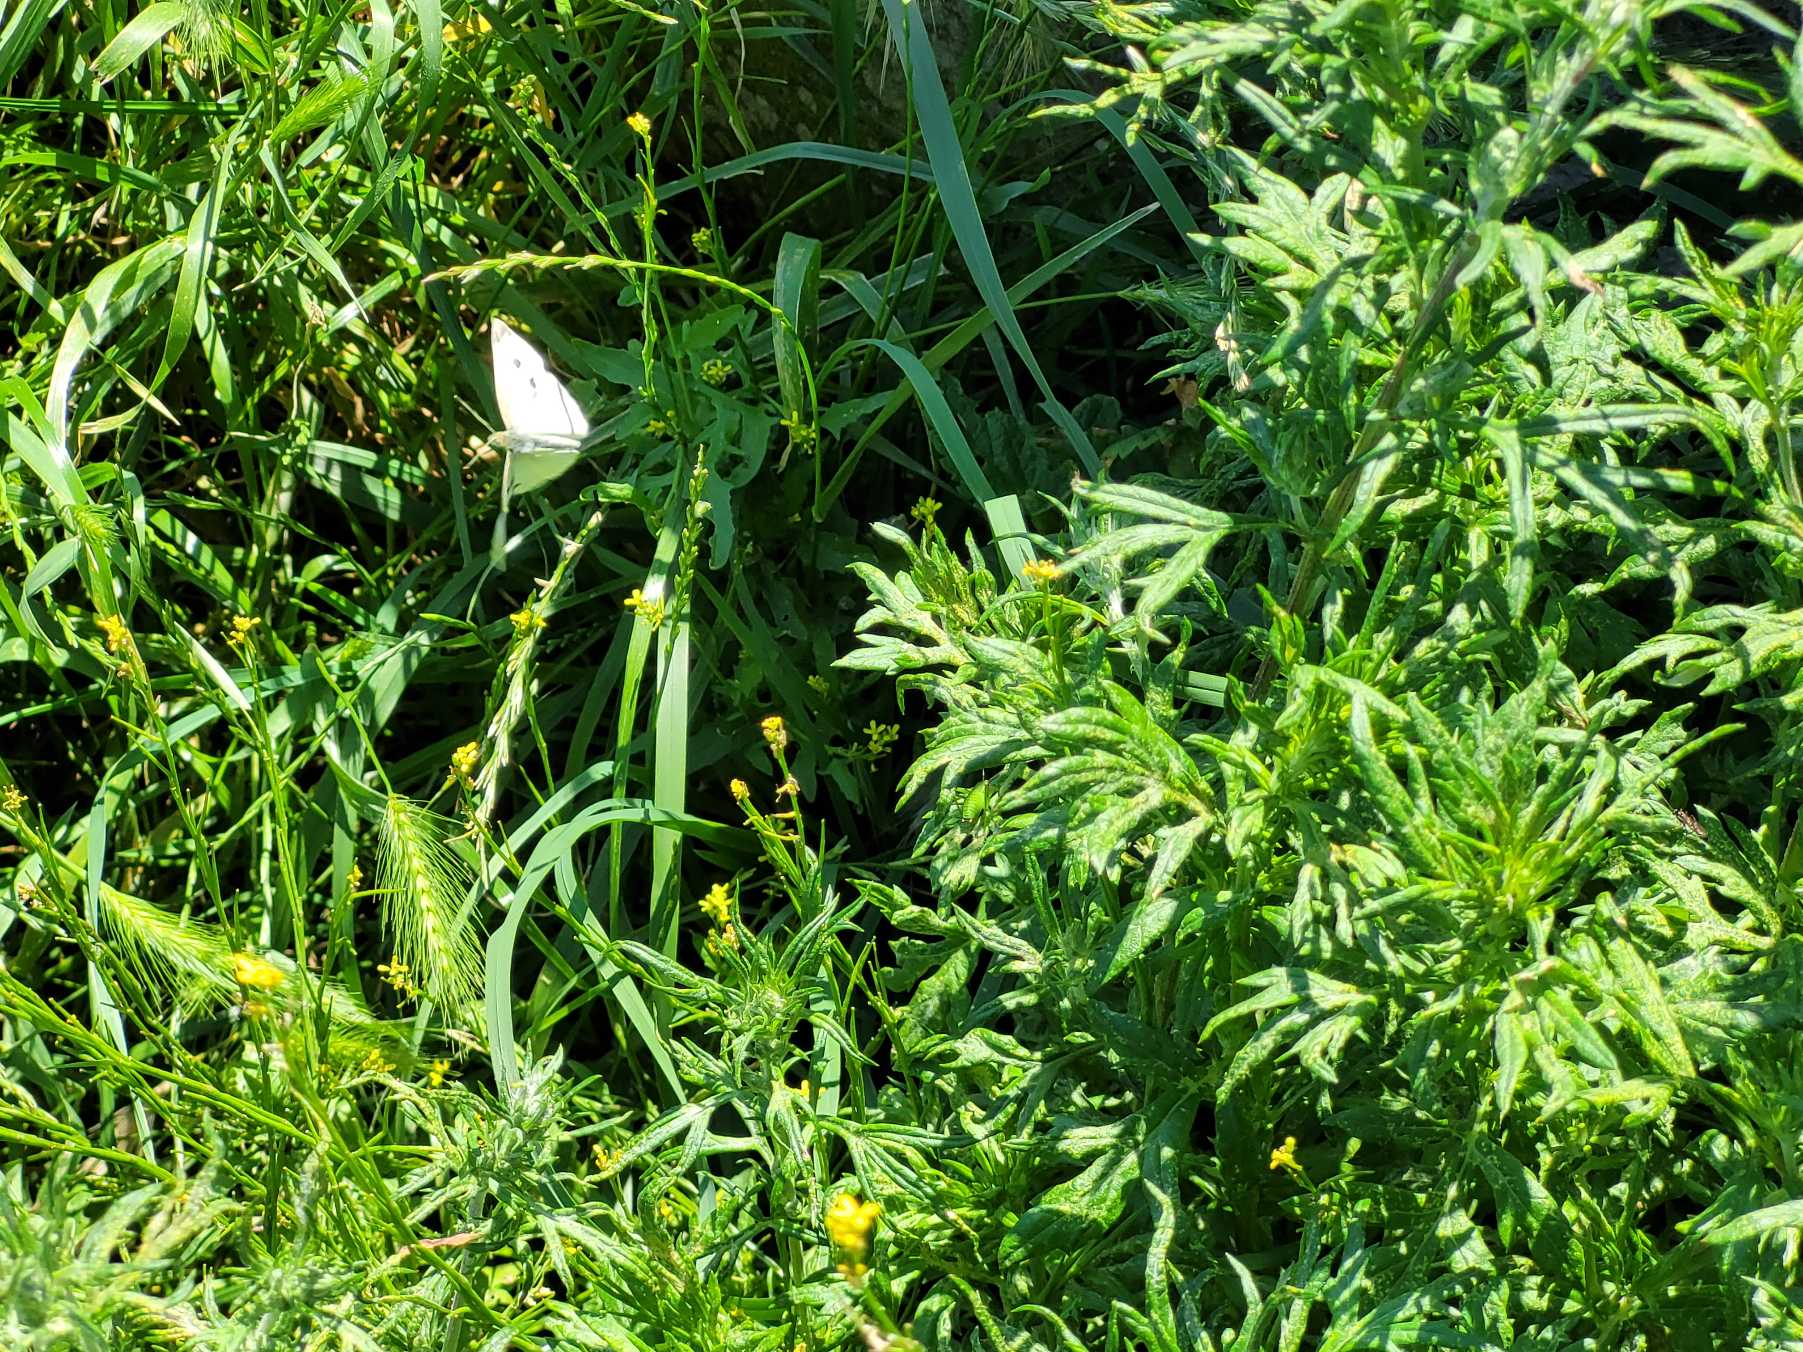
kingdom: Animalia
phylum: Arthropoda
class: Insecta
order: Lepidoptera
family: Pieridae
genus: Pieris
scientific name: Pieris rapae
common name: Lille kålsommerfugl
